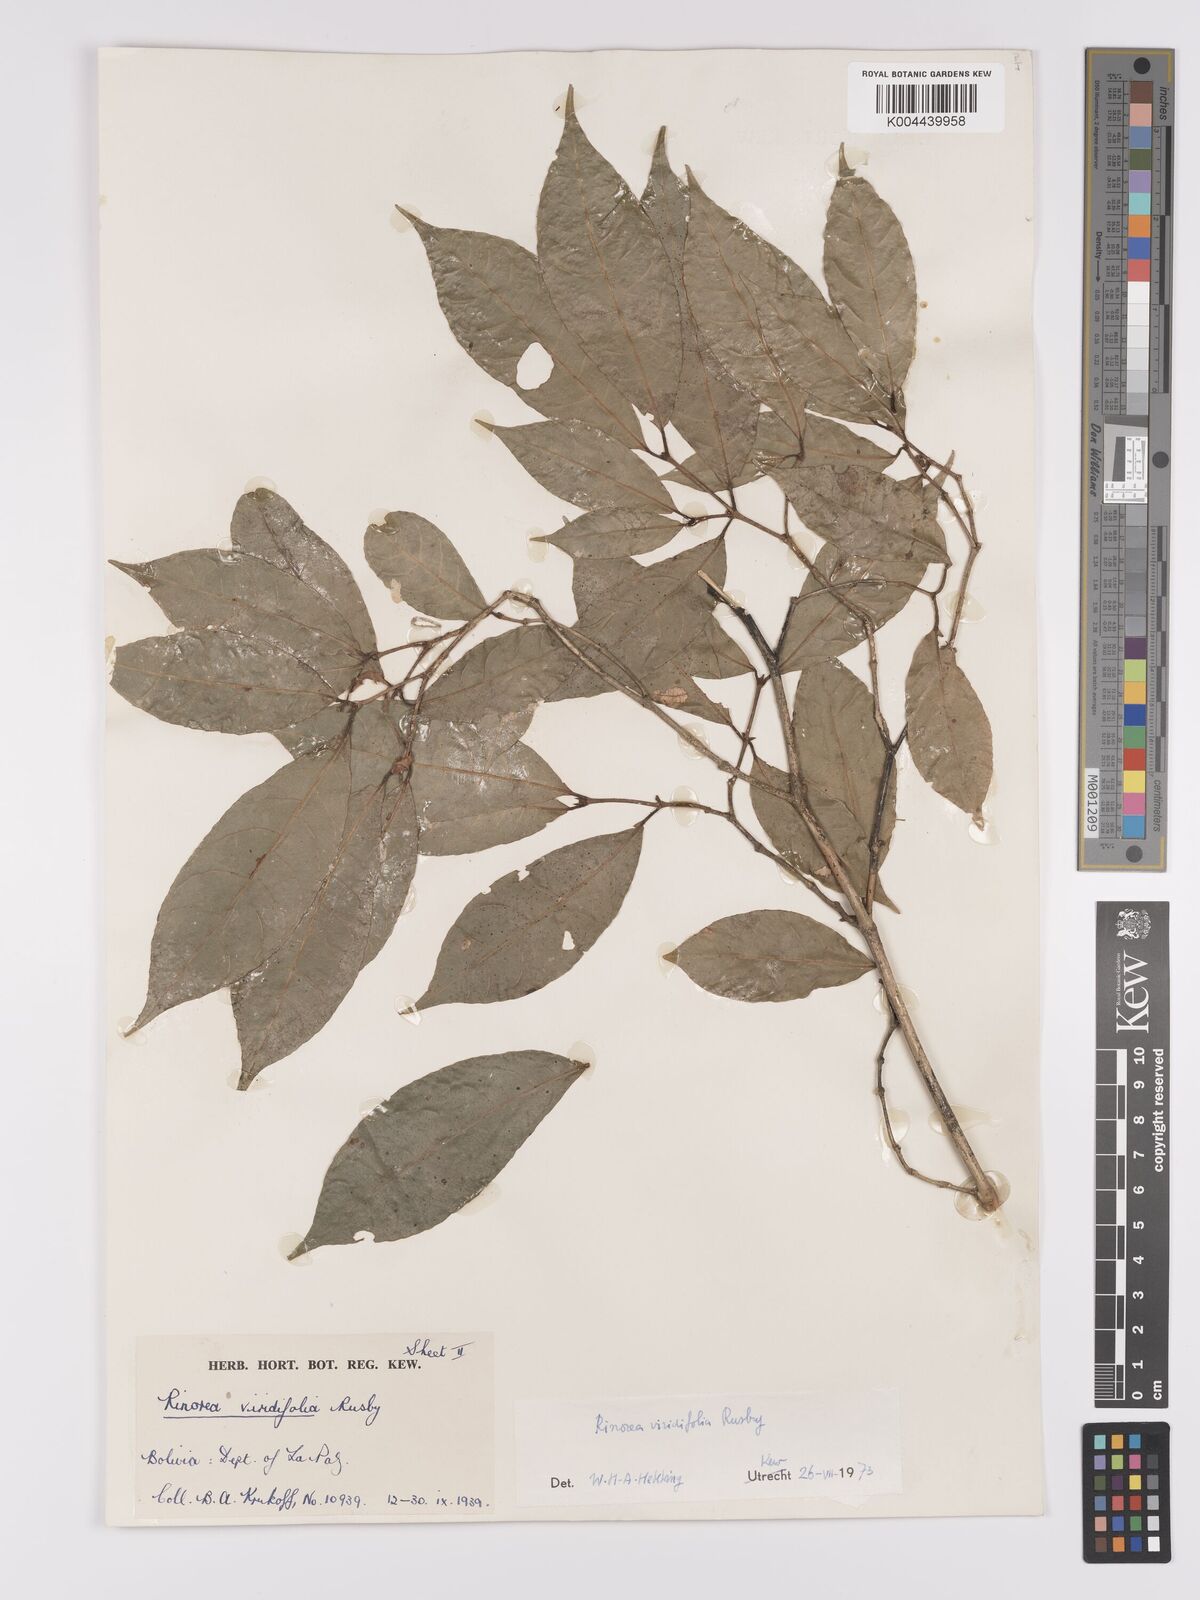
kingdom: Plantae
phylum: Tracheophyta
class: Magnoliopsida
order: Malpighiales
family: Violaceae
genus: Rinorea
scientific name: Rinorea viridifolia
